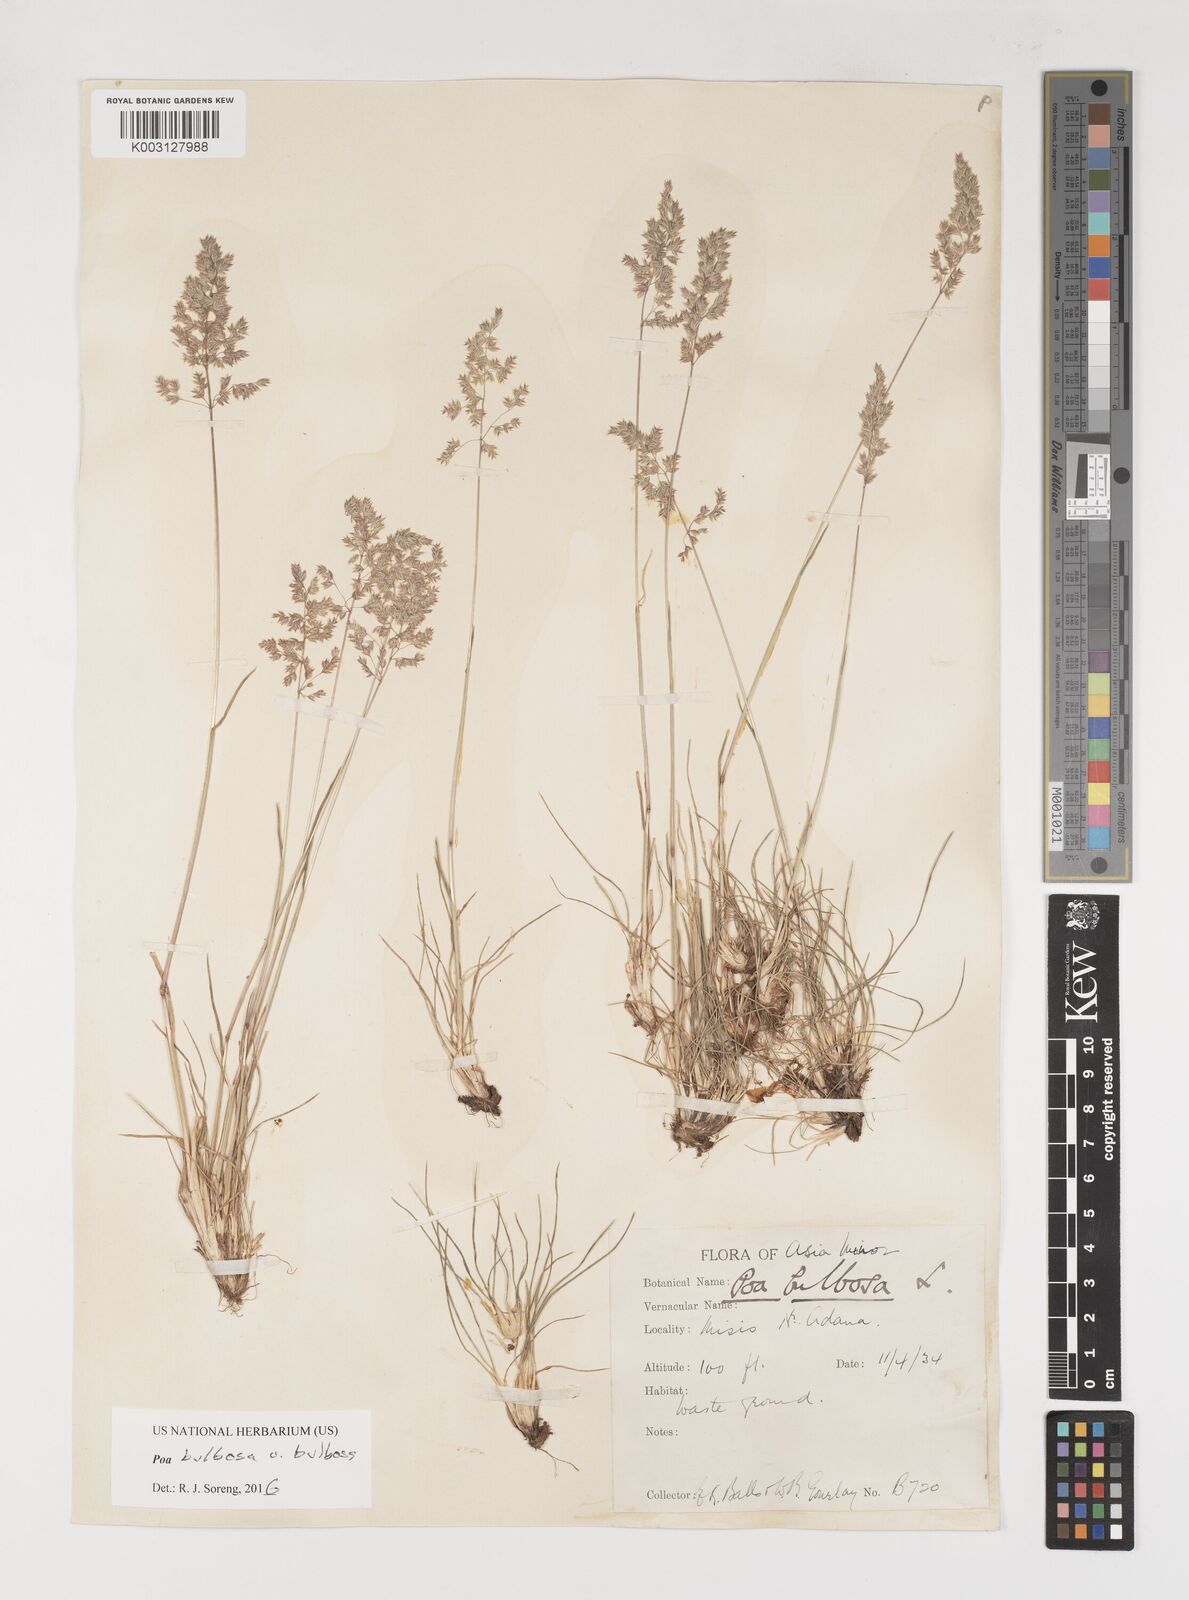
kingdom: Plantae
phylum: Tracheophyta
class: Liliopsida
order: Poales
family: Poaceae
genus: Poa
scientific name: Poa bulbosa
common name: Bulbous bluegrass
